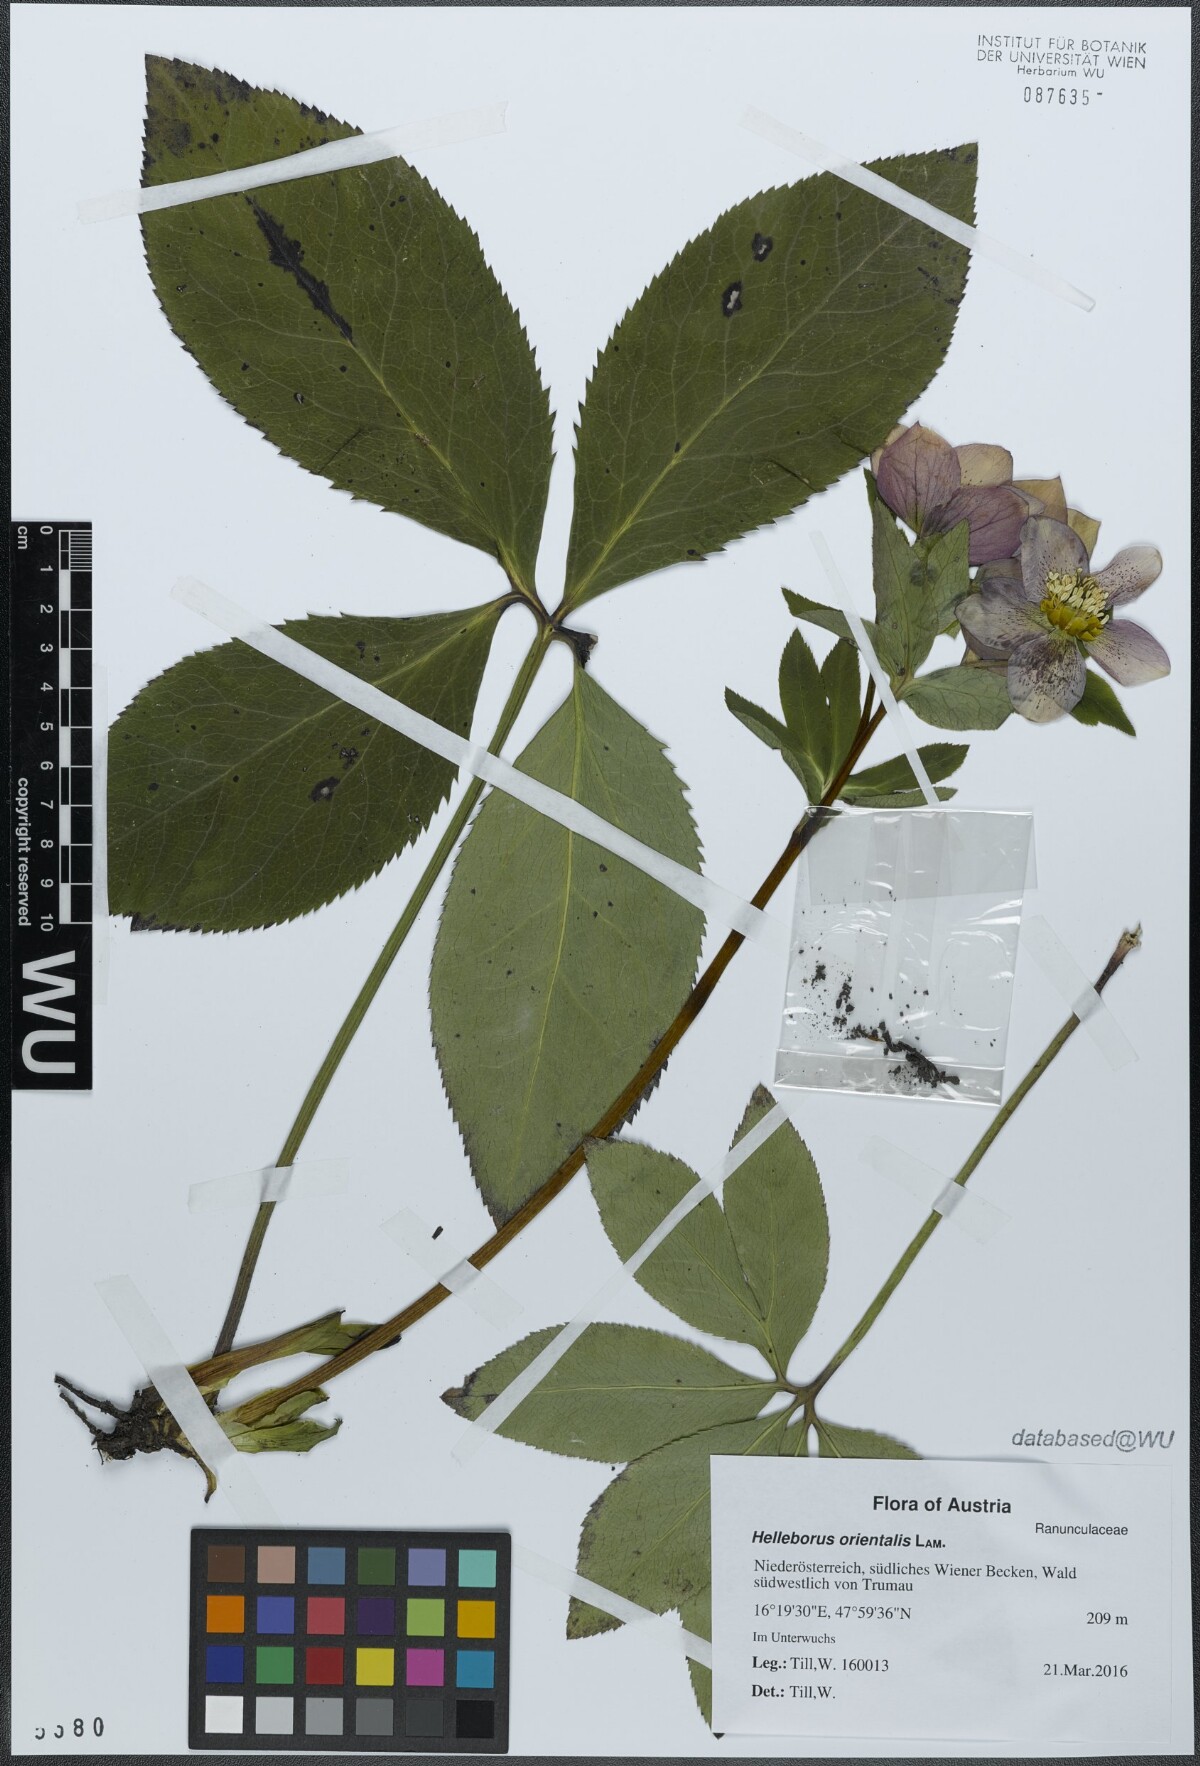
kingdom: Plantae
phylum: Tracheophyta
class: Magnoliopsida
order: Ranunculales
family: Ranunculaceae
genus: Helleborus
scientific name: Helleborus orientalis
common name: Lenten-rose
